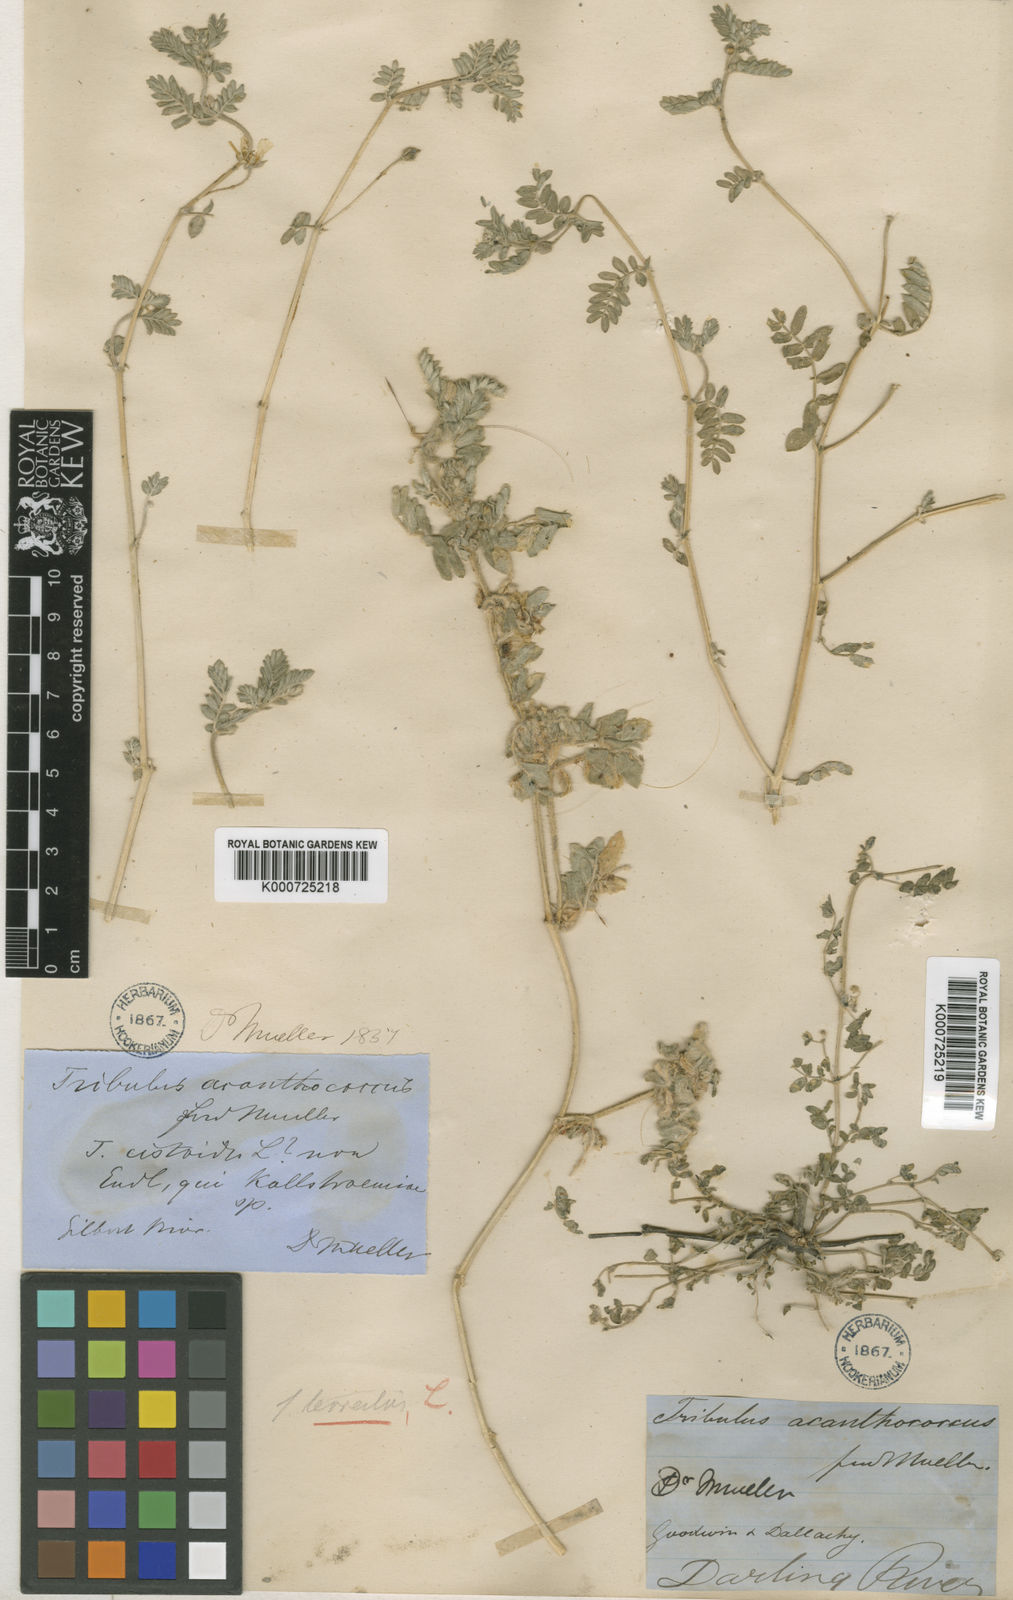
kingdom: Plantae
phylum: Tracheophyta
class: Magnoliopsida
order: Zygophyllales
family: Zygophyllaceae
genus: Tribulus
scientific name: Tribulus terrestris
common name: Puncturevine
